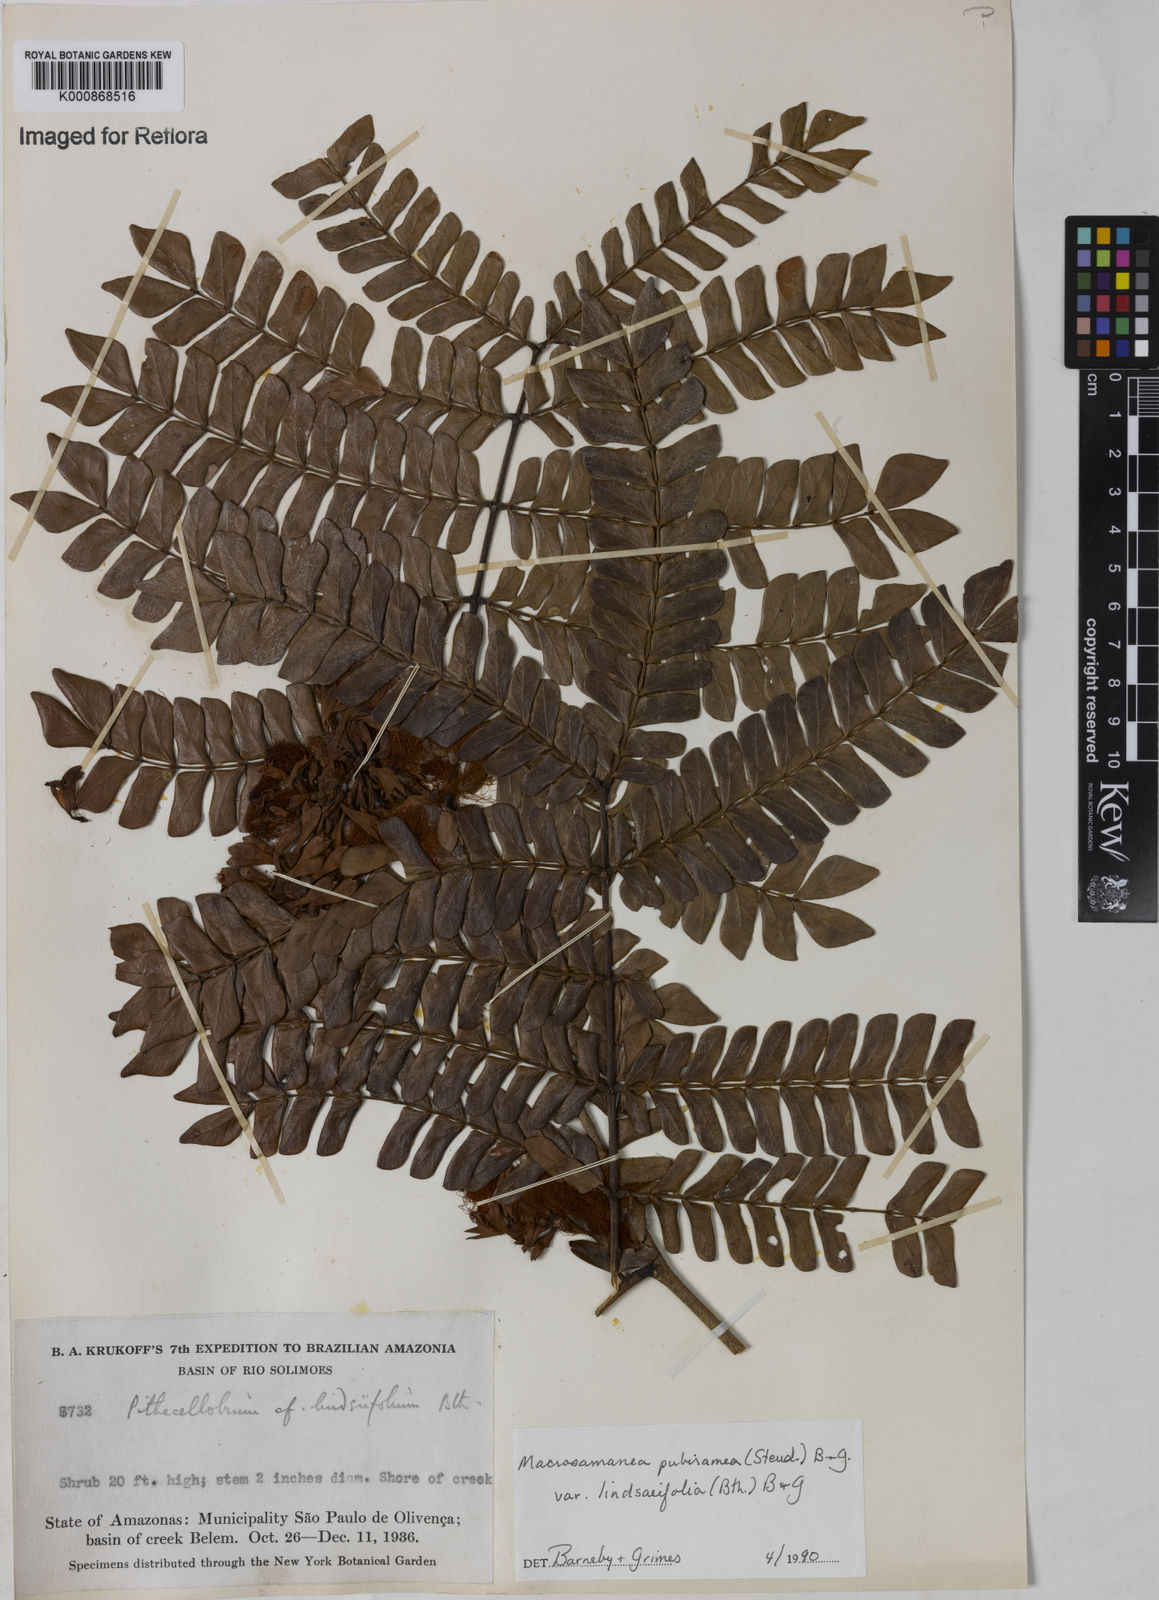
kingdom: Plantae
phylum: Tracheophyta
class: Magnoliopsida
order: Fabales
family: Fabaceae
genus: Macrosamanea
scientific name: Macrosamanea pubiramea
